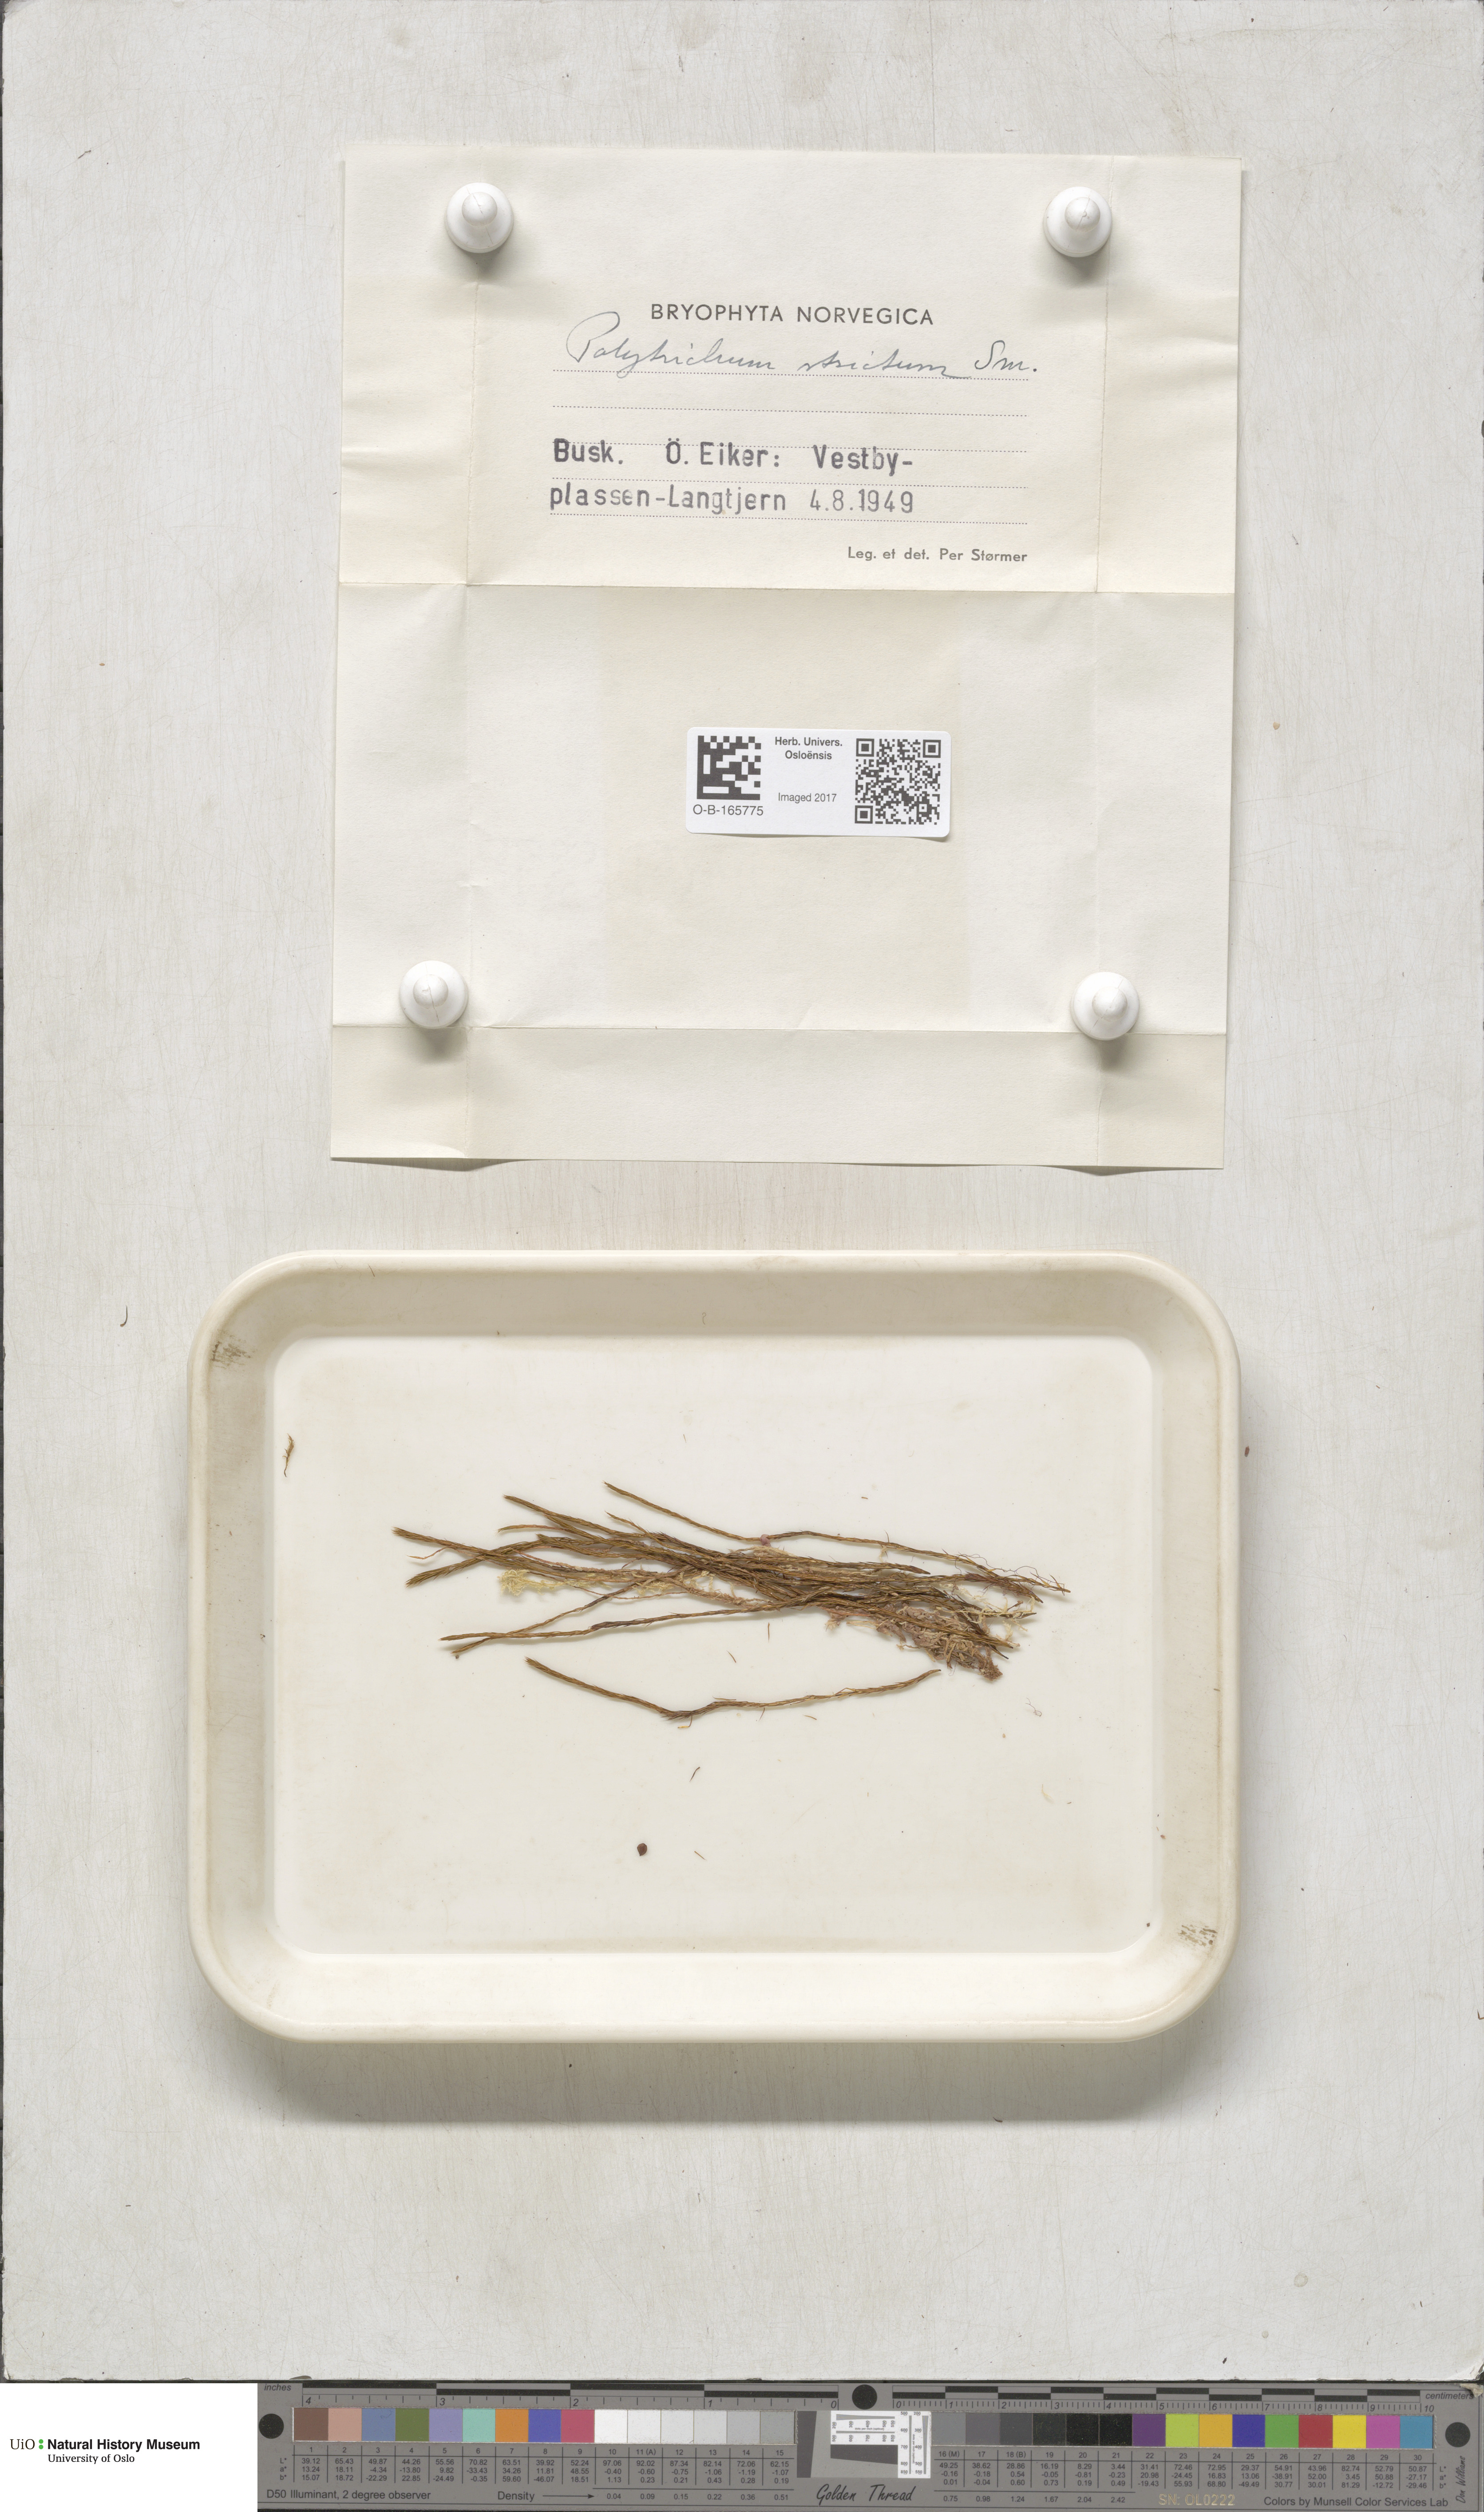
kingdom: Plantae
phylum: Bryophyta
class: Polytrichopsida
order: Polytrichales
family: Polytrichaceae
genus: Polytrichum
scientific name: Polytrichum strictum
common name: Bog haircap moss
